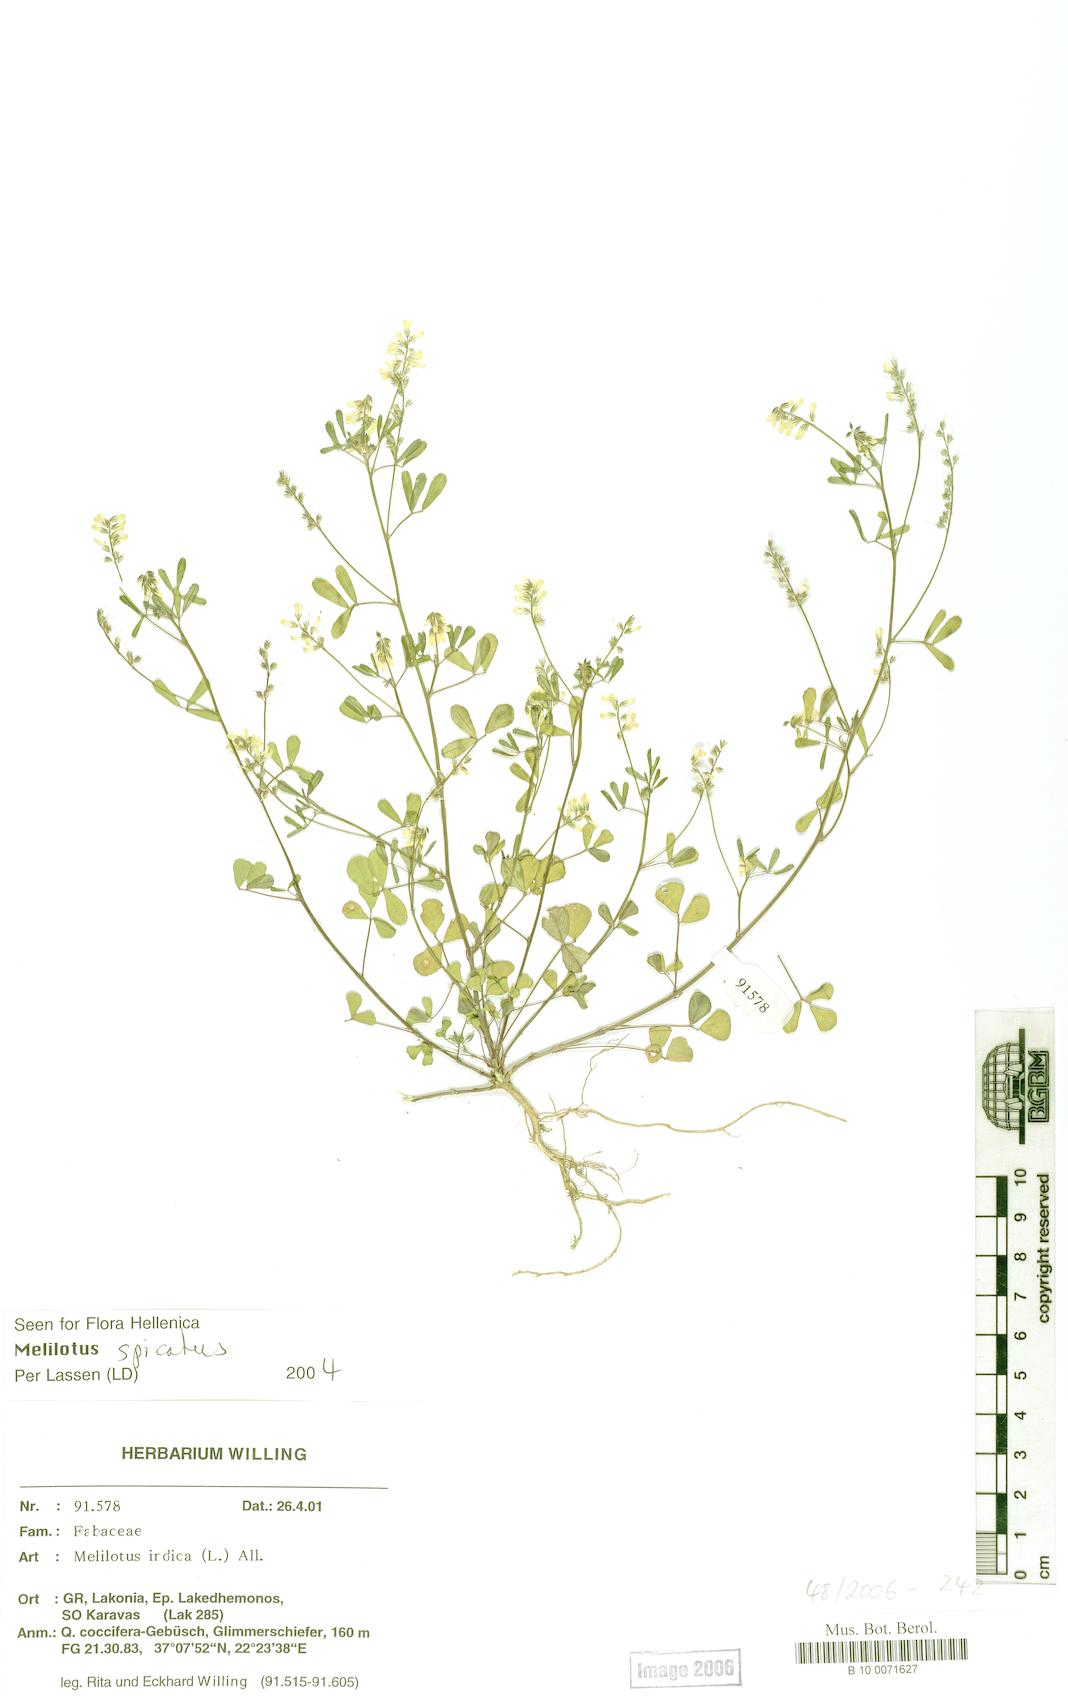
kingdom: Plantae
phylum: Tracheophyta
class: Magnoliopsida
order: Fabales
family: Fabaceae
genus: Melilotus
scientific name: Melilotus indicus
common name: Small melilot
